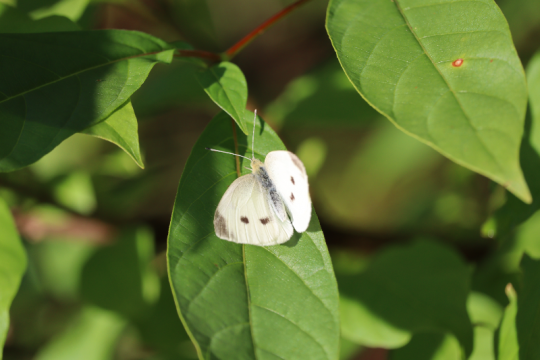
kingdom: Animalia
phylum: Arthropoda
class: Insecta
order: Lepidoptera
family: Pieridae
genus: Pieris
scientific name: Pieris rapae
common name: Cabbage White
